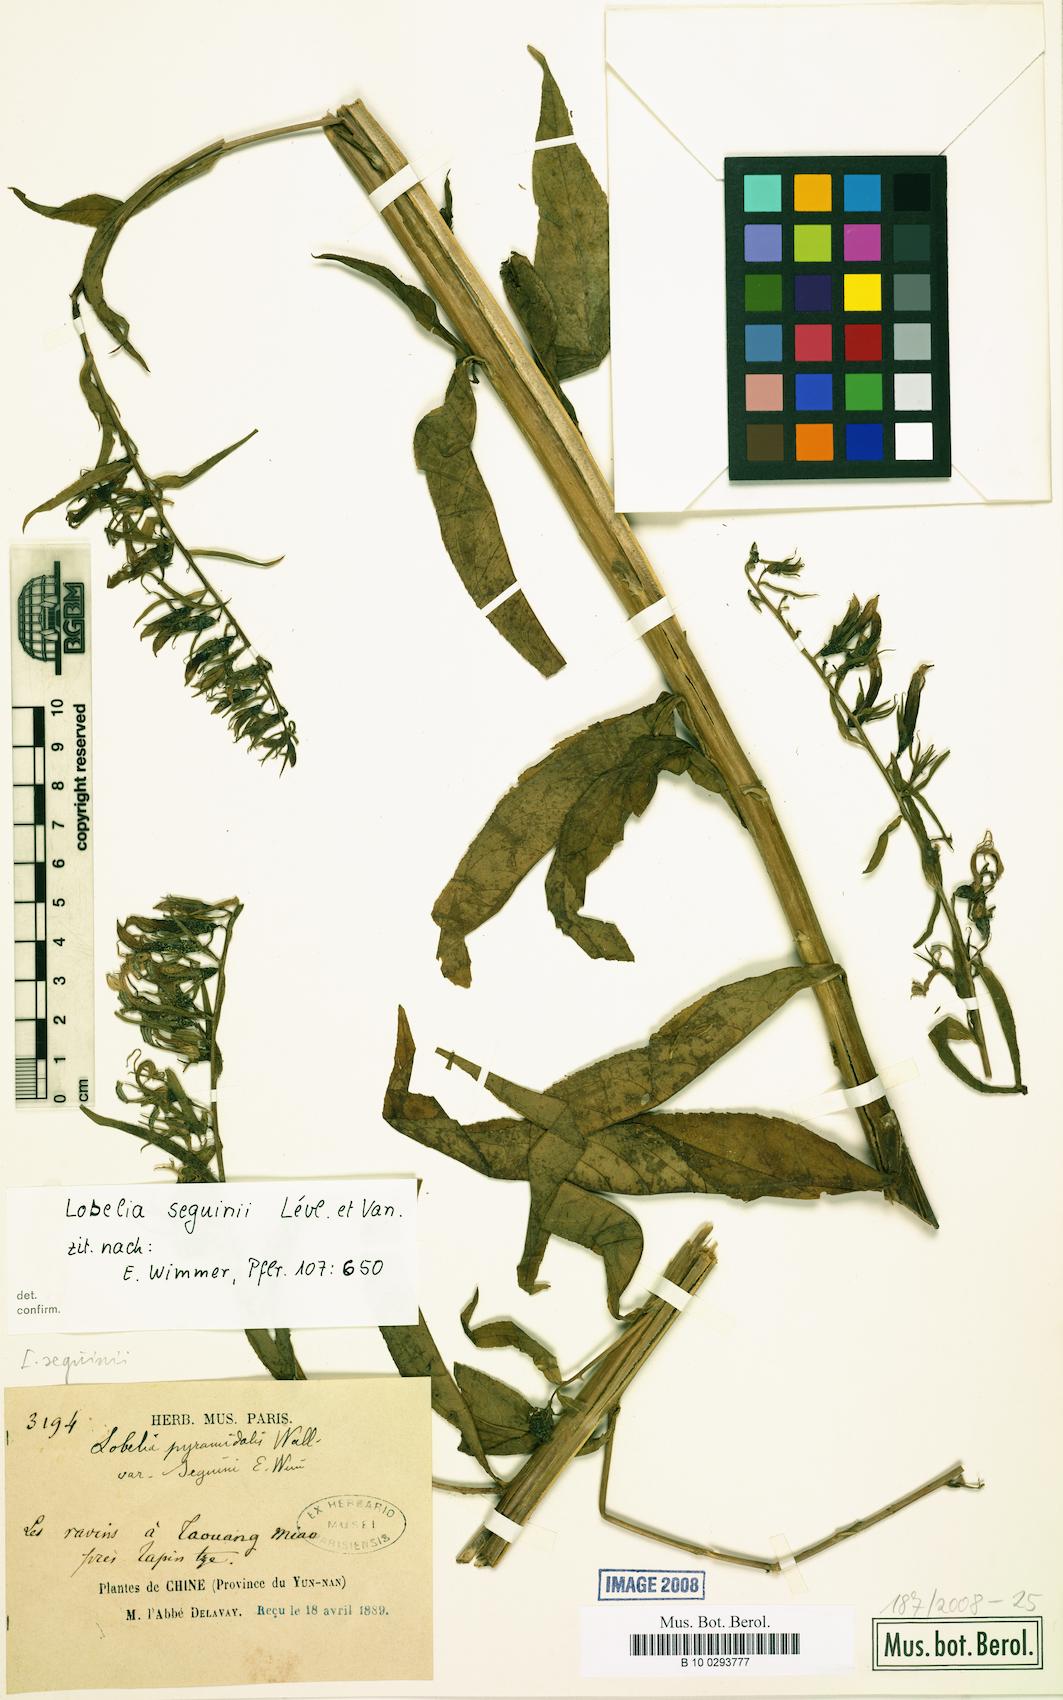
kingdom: Plantae
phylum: Tracheophyta
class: Magnoliopsida
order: Asterales
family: Campanulaceae
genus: Lobelia
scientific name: Lobelia seguinii
